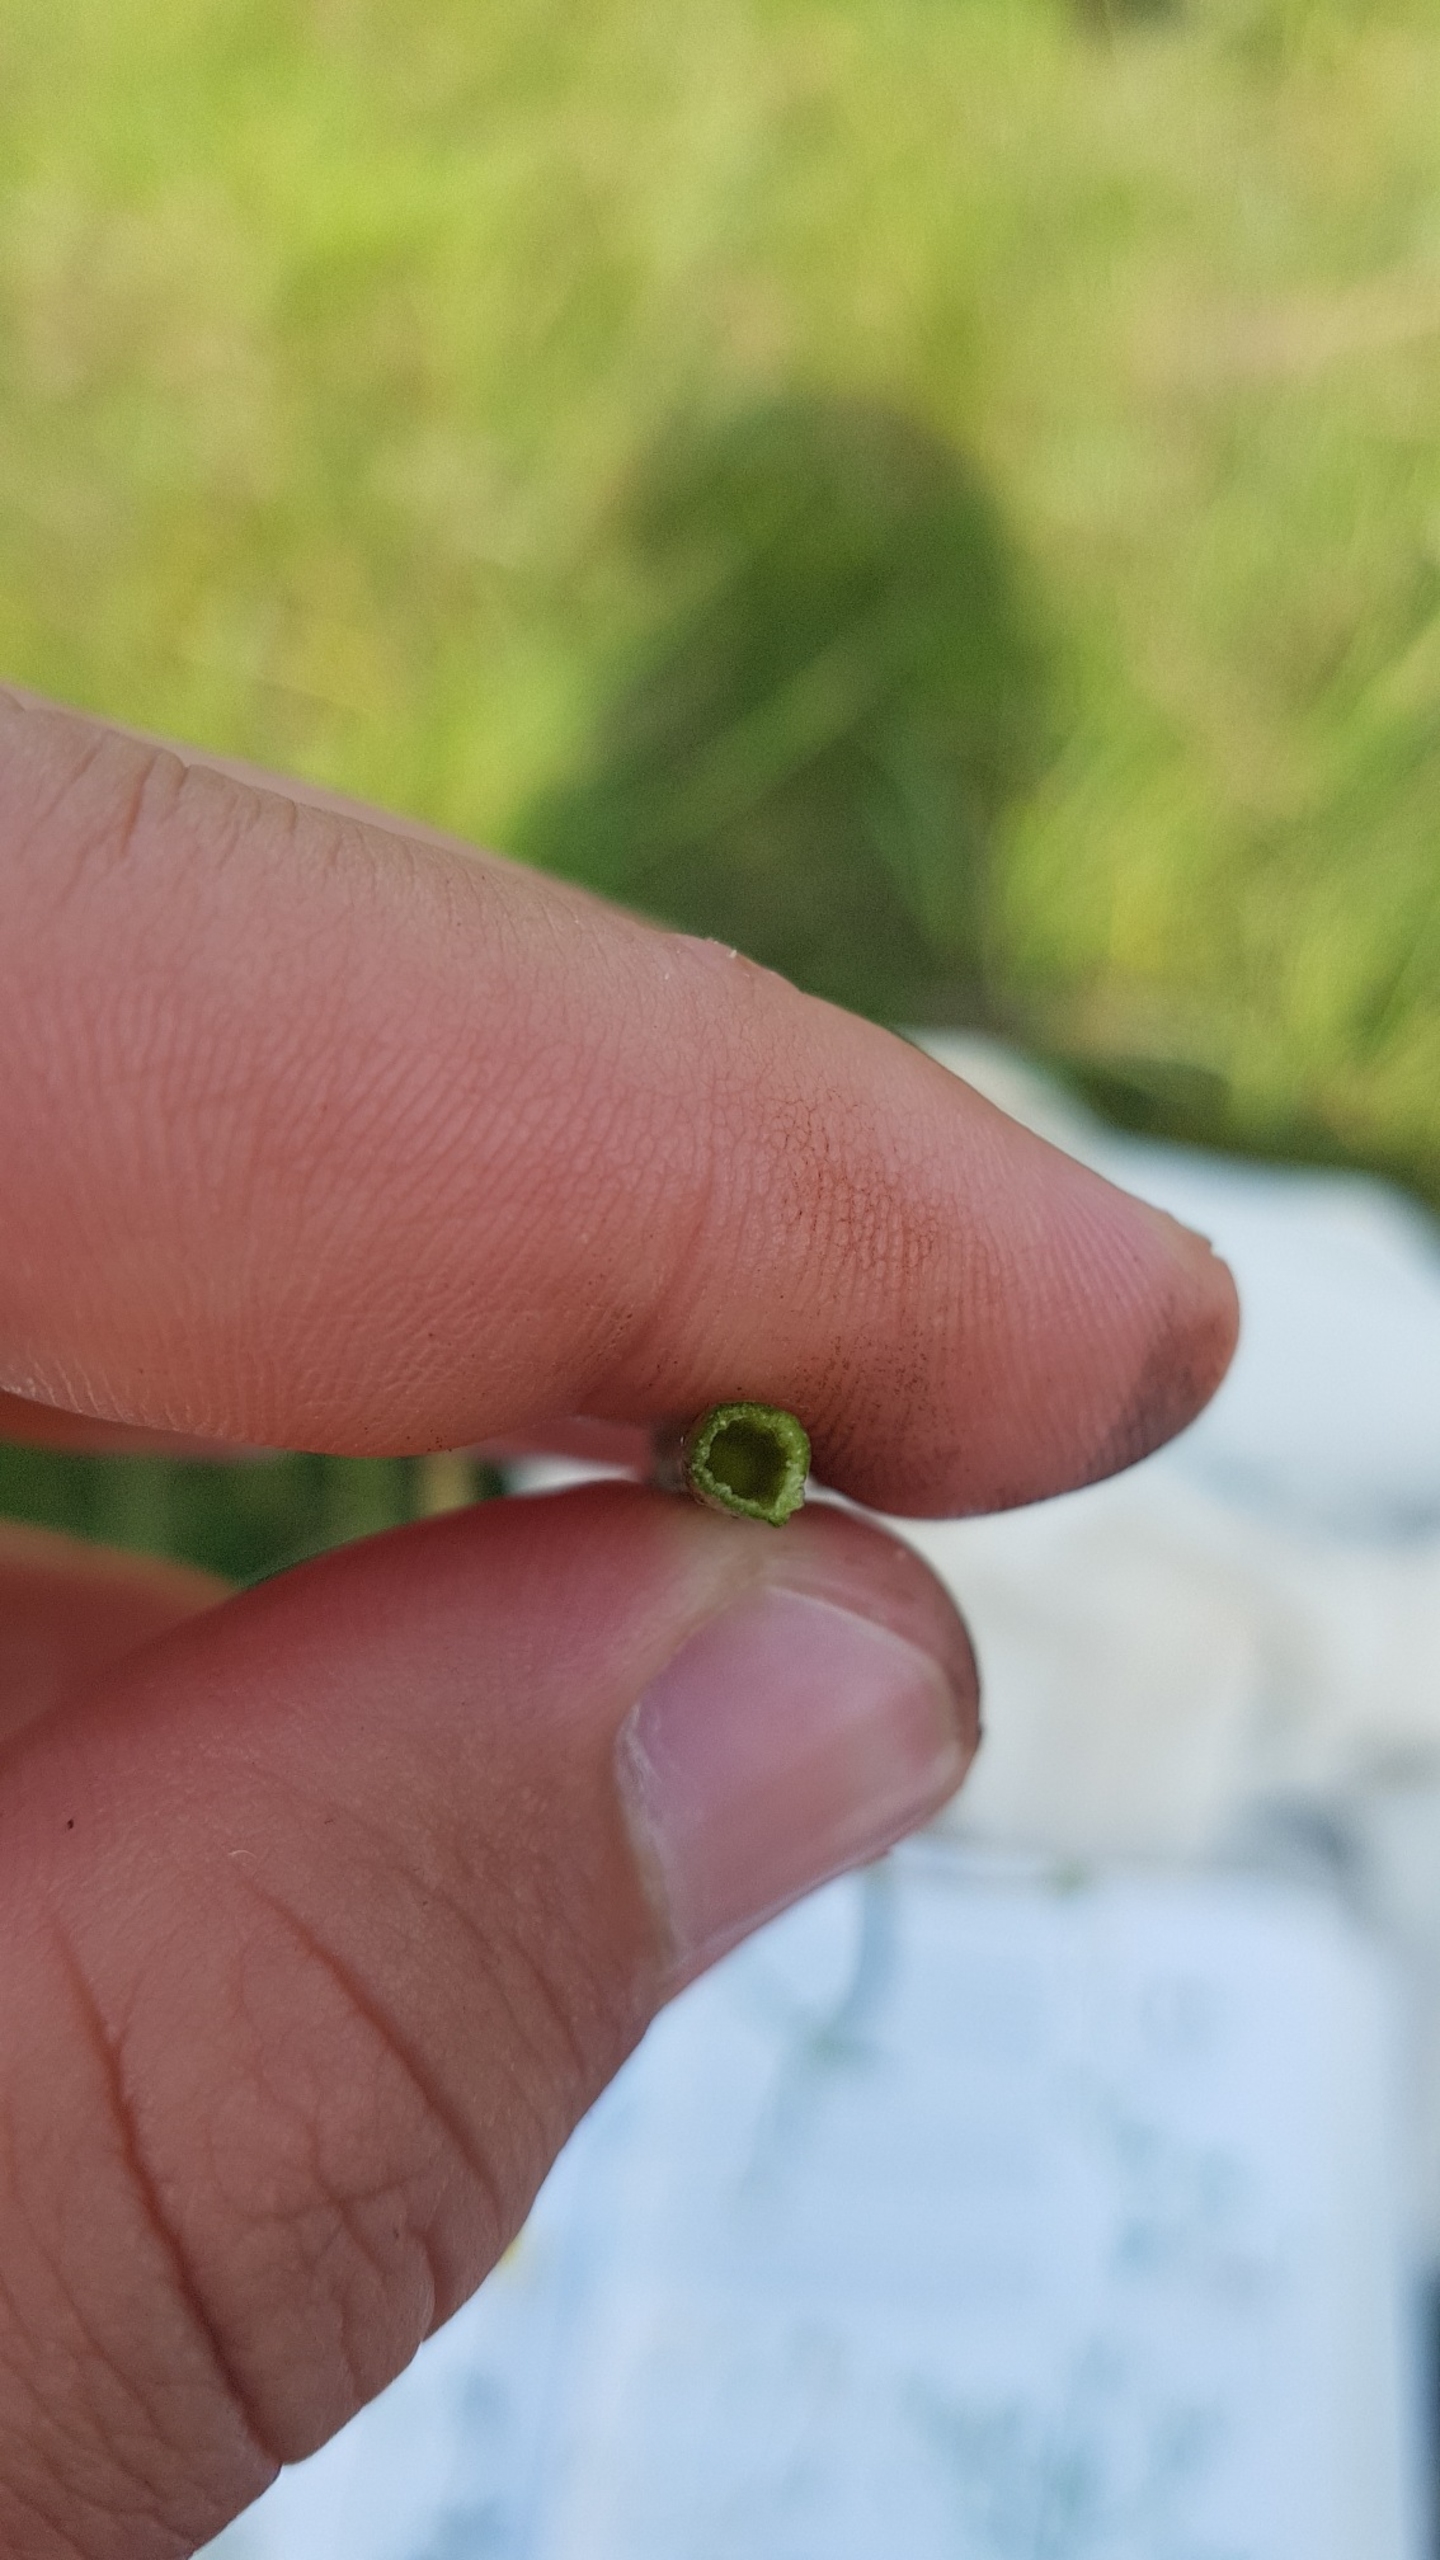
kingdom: Plantae
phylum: Tracheophyta
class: Magnoliopsida
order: Ranunculales
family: Ranunculaceae
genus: Ranunculus
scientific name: Ranunculus
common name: Ranunkelslægten
